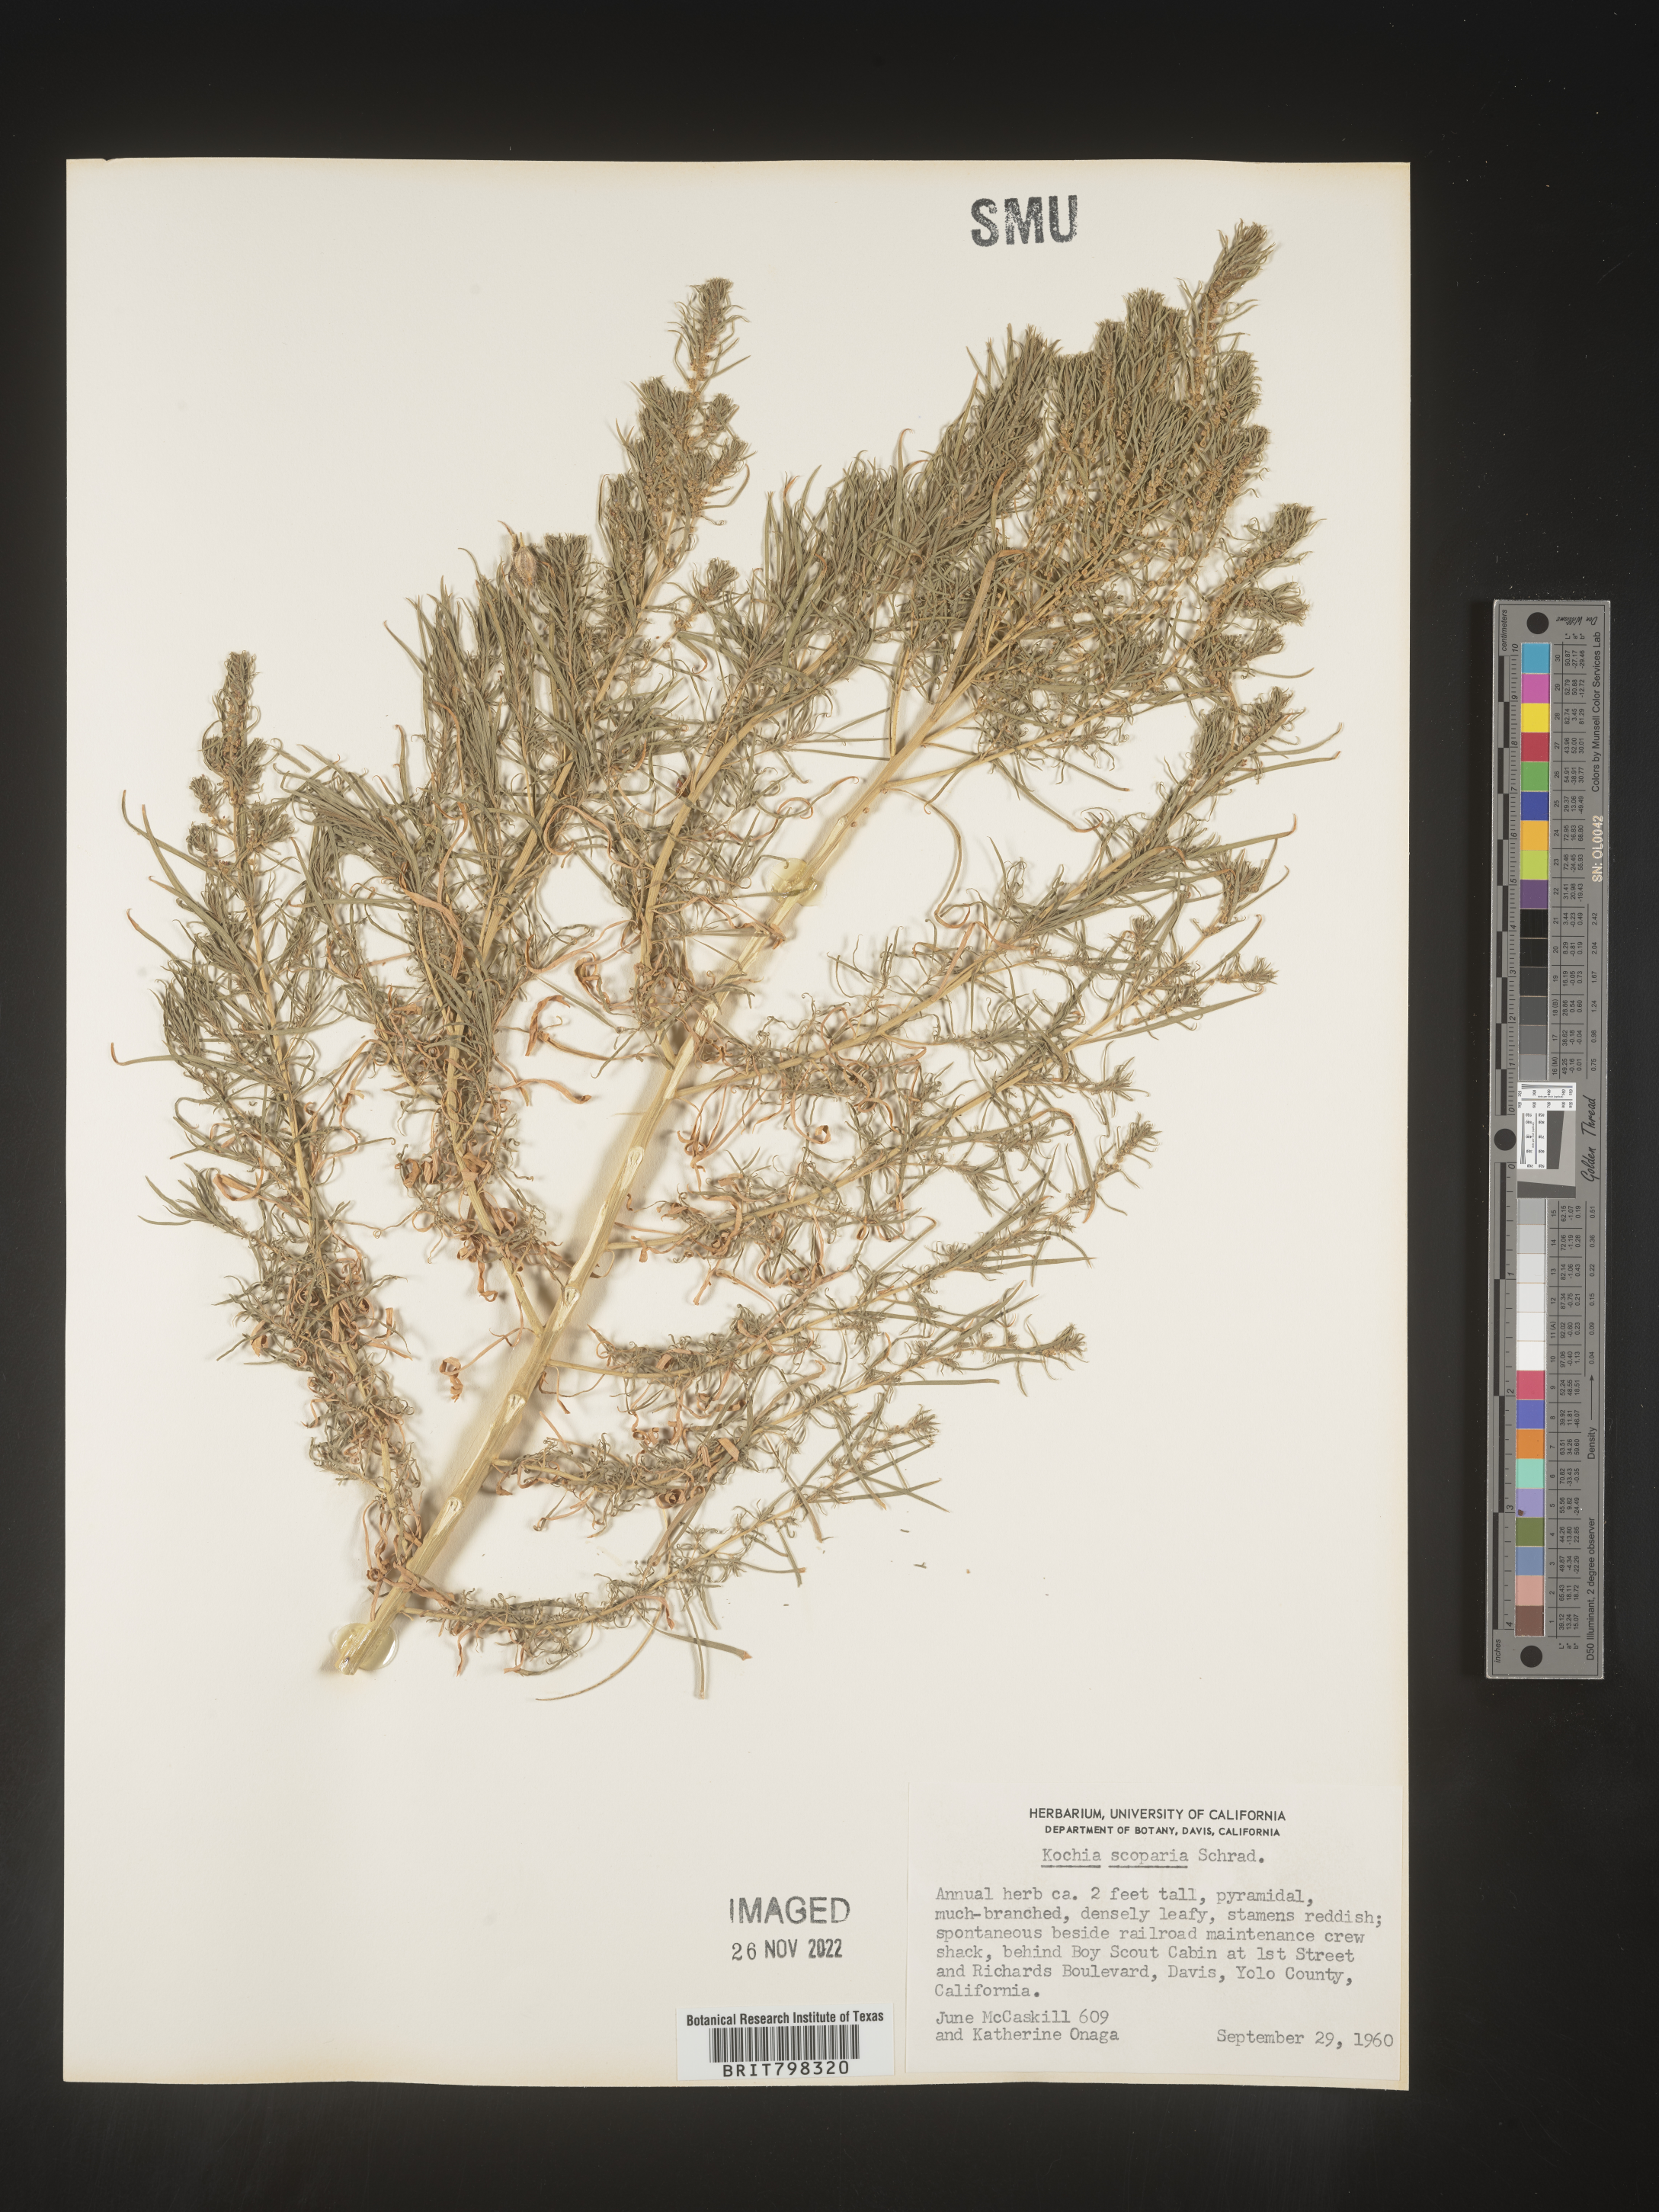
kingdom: Plantae
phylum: Tracheophyta
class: Magnoliopsida
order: Caryophyllales
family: Amaranthaceae
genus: Bassia
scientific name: Bassia scoparia
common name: Belvedere
